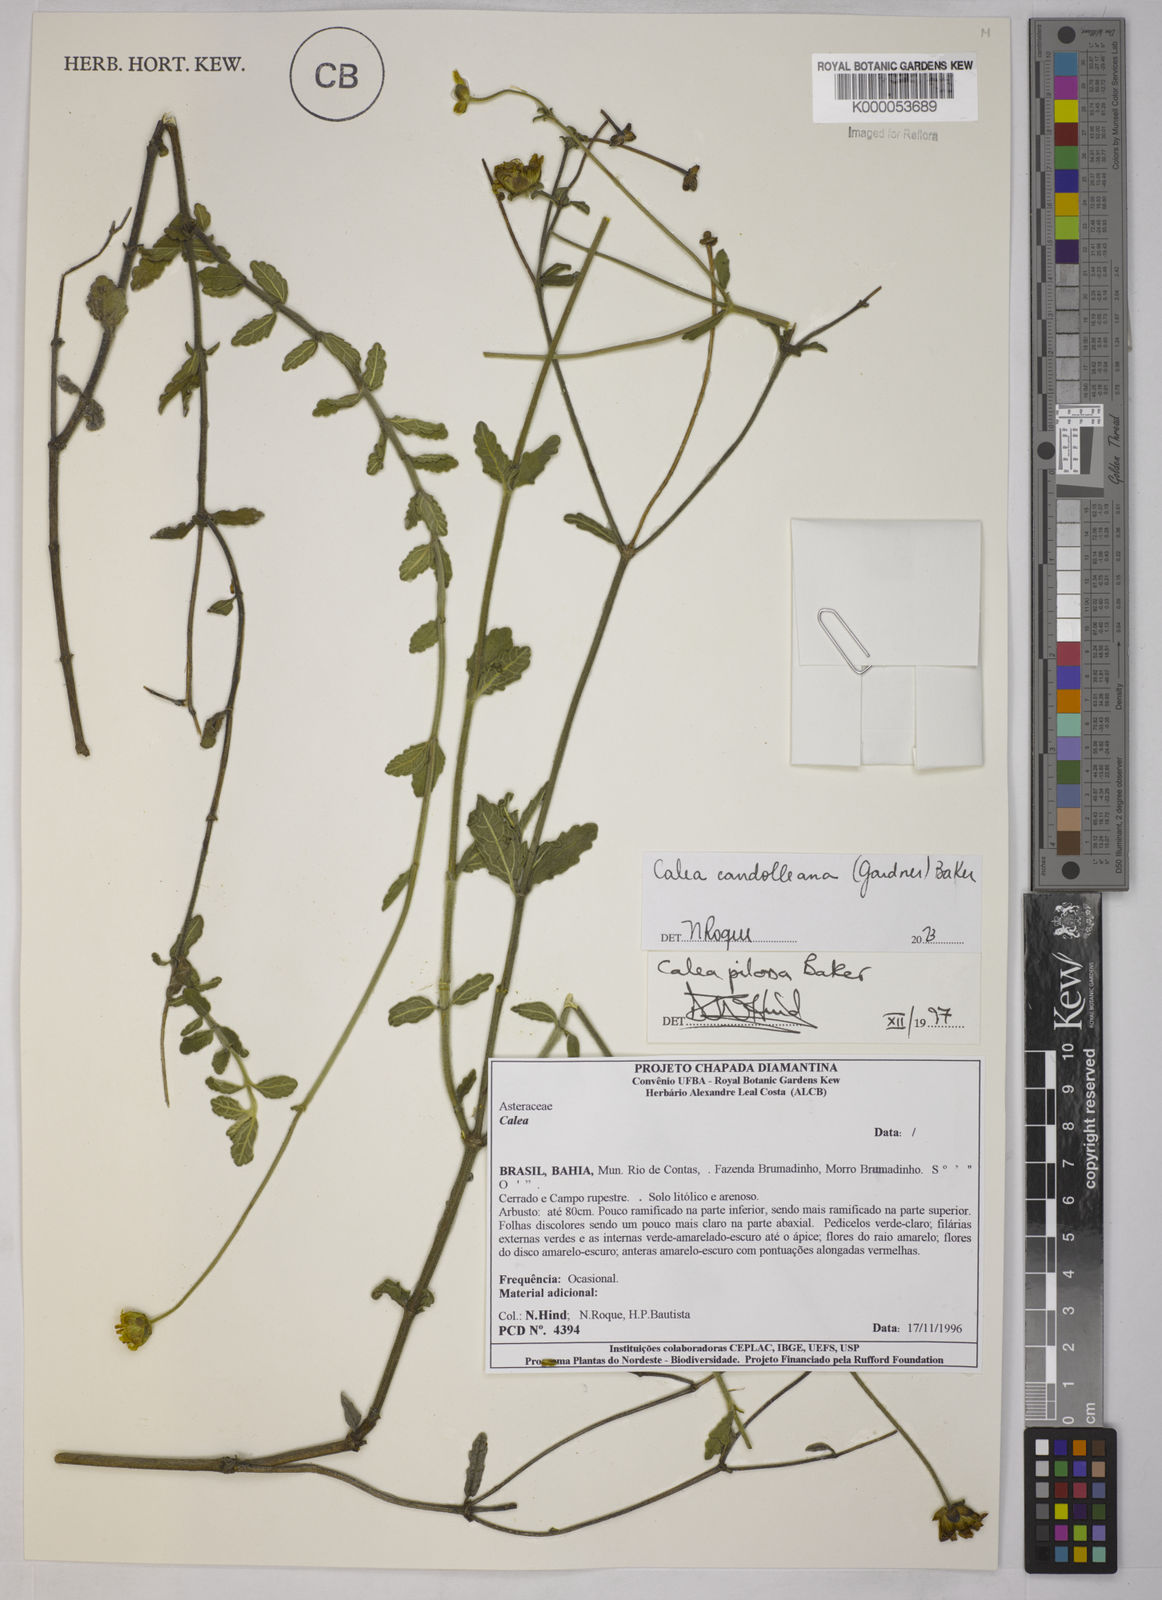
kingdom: Plantae
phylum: Tracheophyta
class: Magnoliopsida
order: Asterales
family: Asteraceae
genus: Calea
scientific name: Calea pilosa
